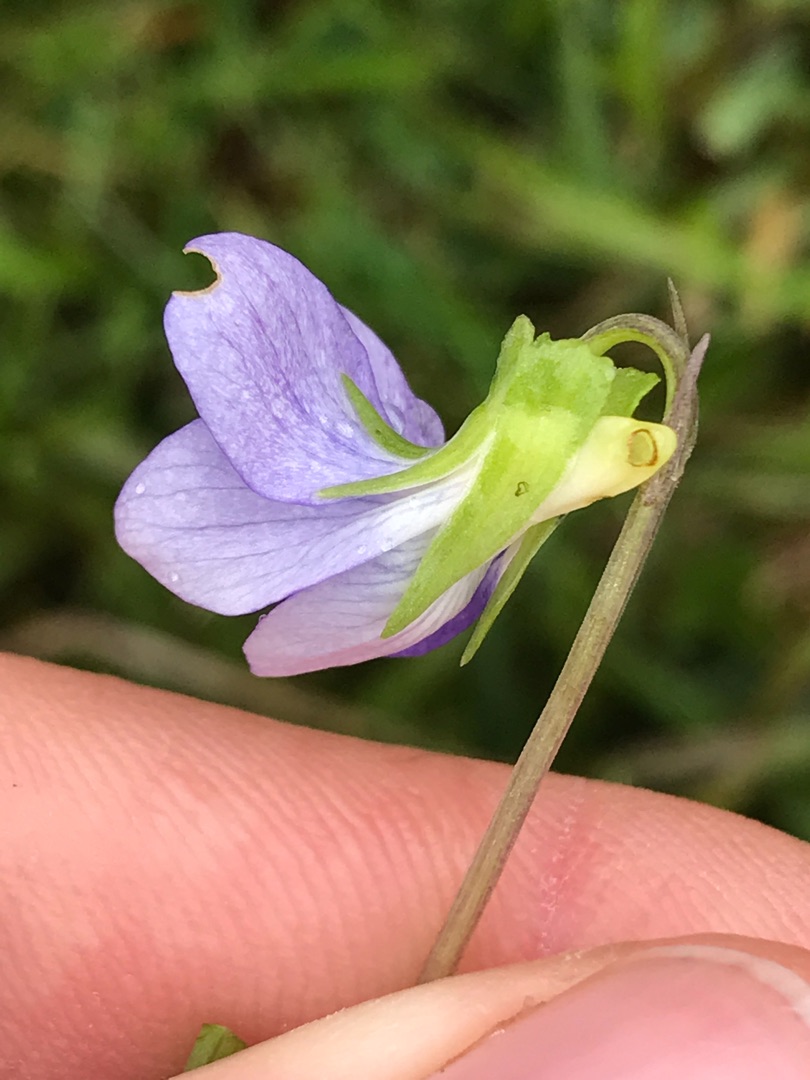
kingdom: Plantae
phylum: Tracheophyta
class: Magnoliopsida
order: Malpighiales
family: Violaceae
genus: Viola
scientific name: Viola canina
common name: Hunde-viol
